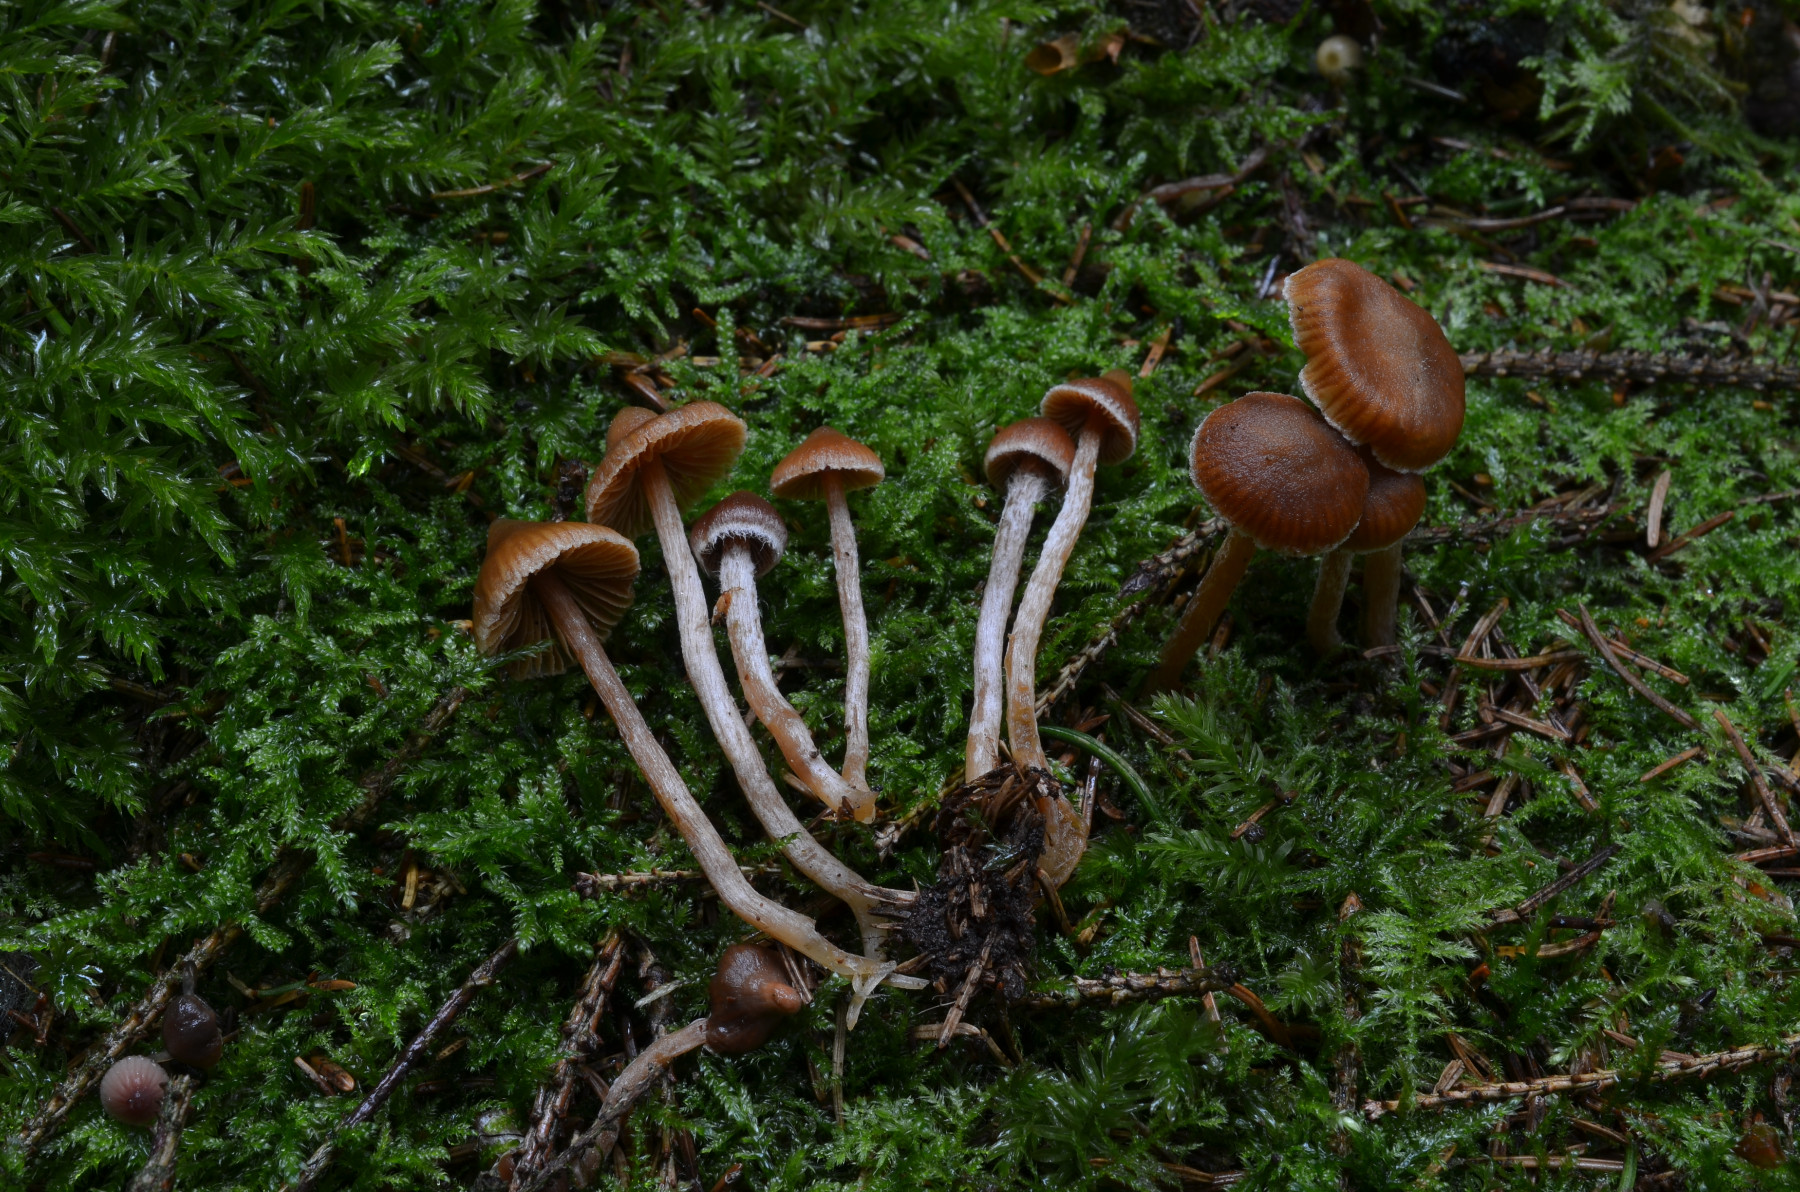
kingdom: Fungi
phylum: Basidiomycota
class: Agaricomycetes
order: Agaricales
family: Cortinariaceae
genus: Cortinarius
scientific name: Cortinarius acutus
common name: spids slørhat
